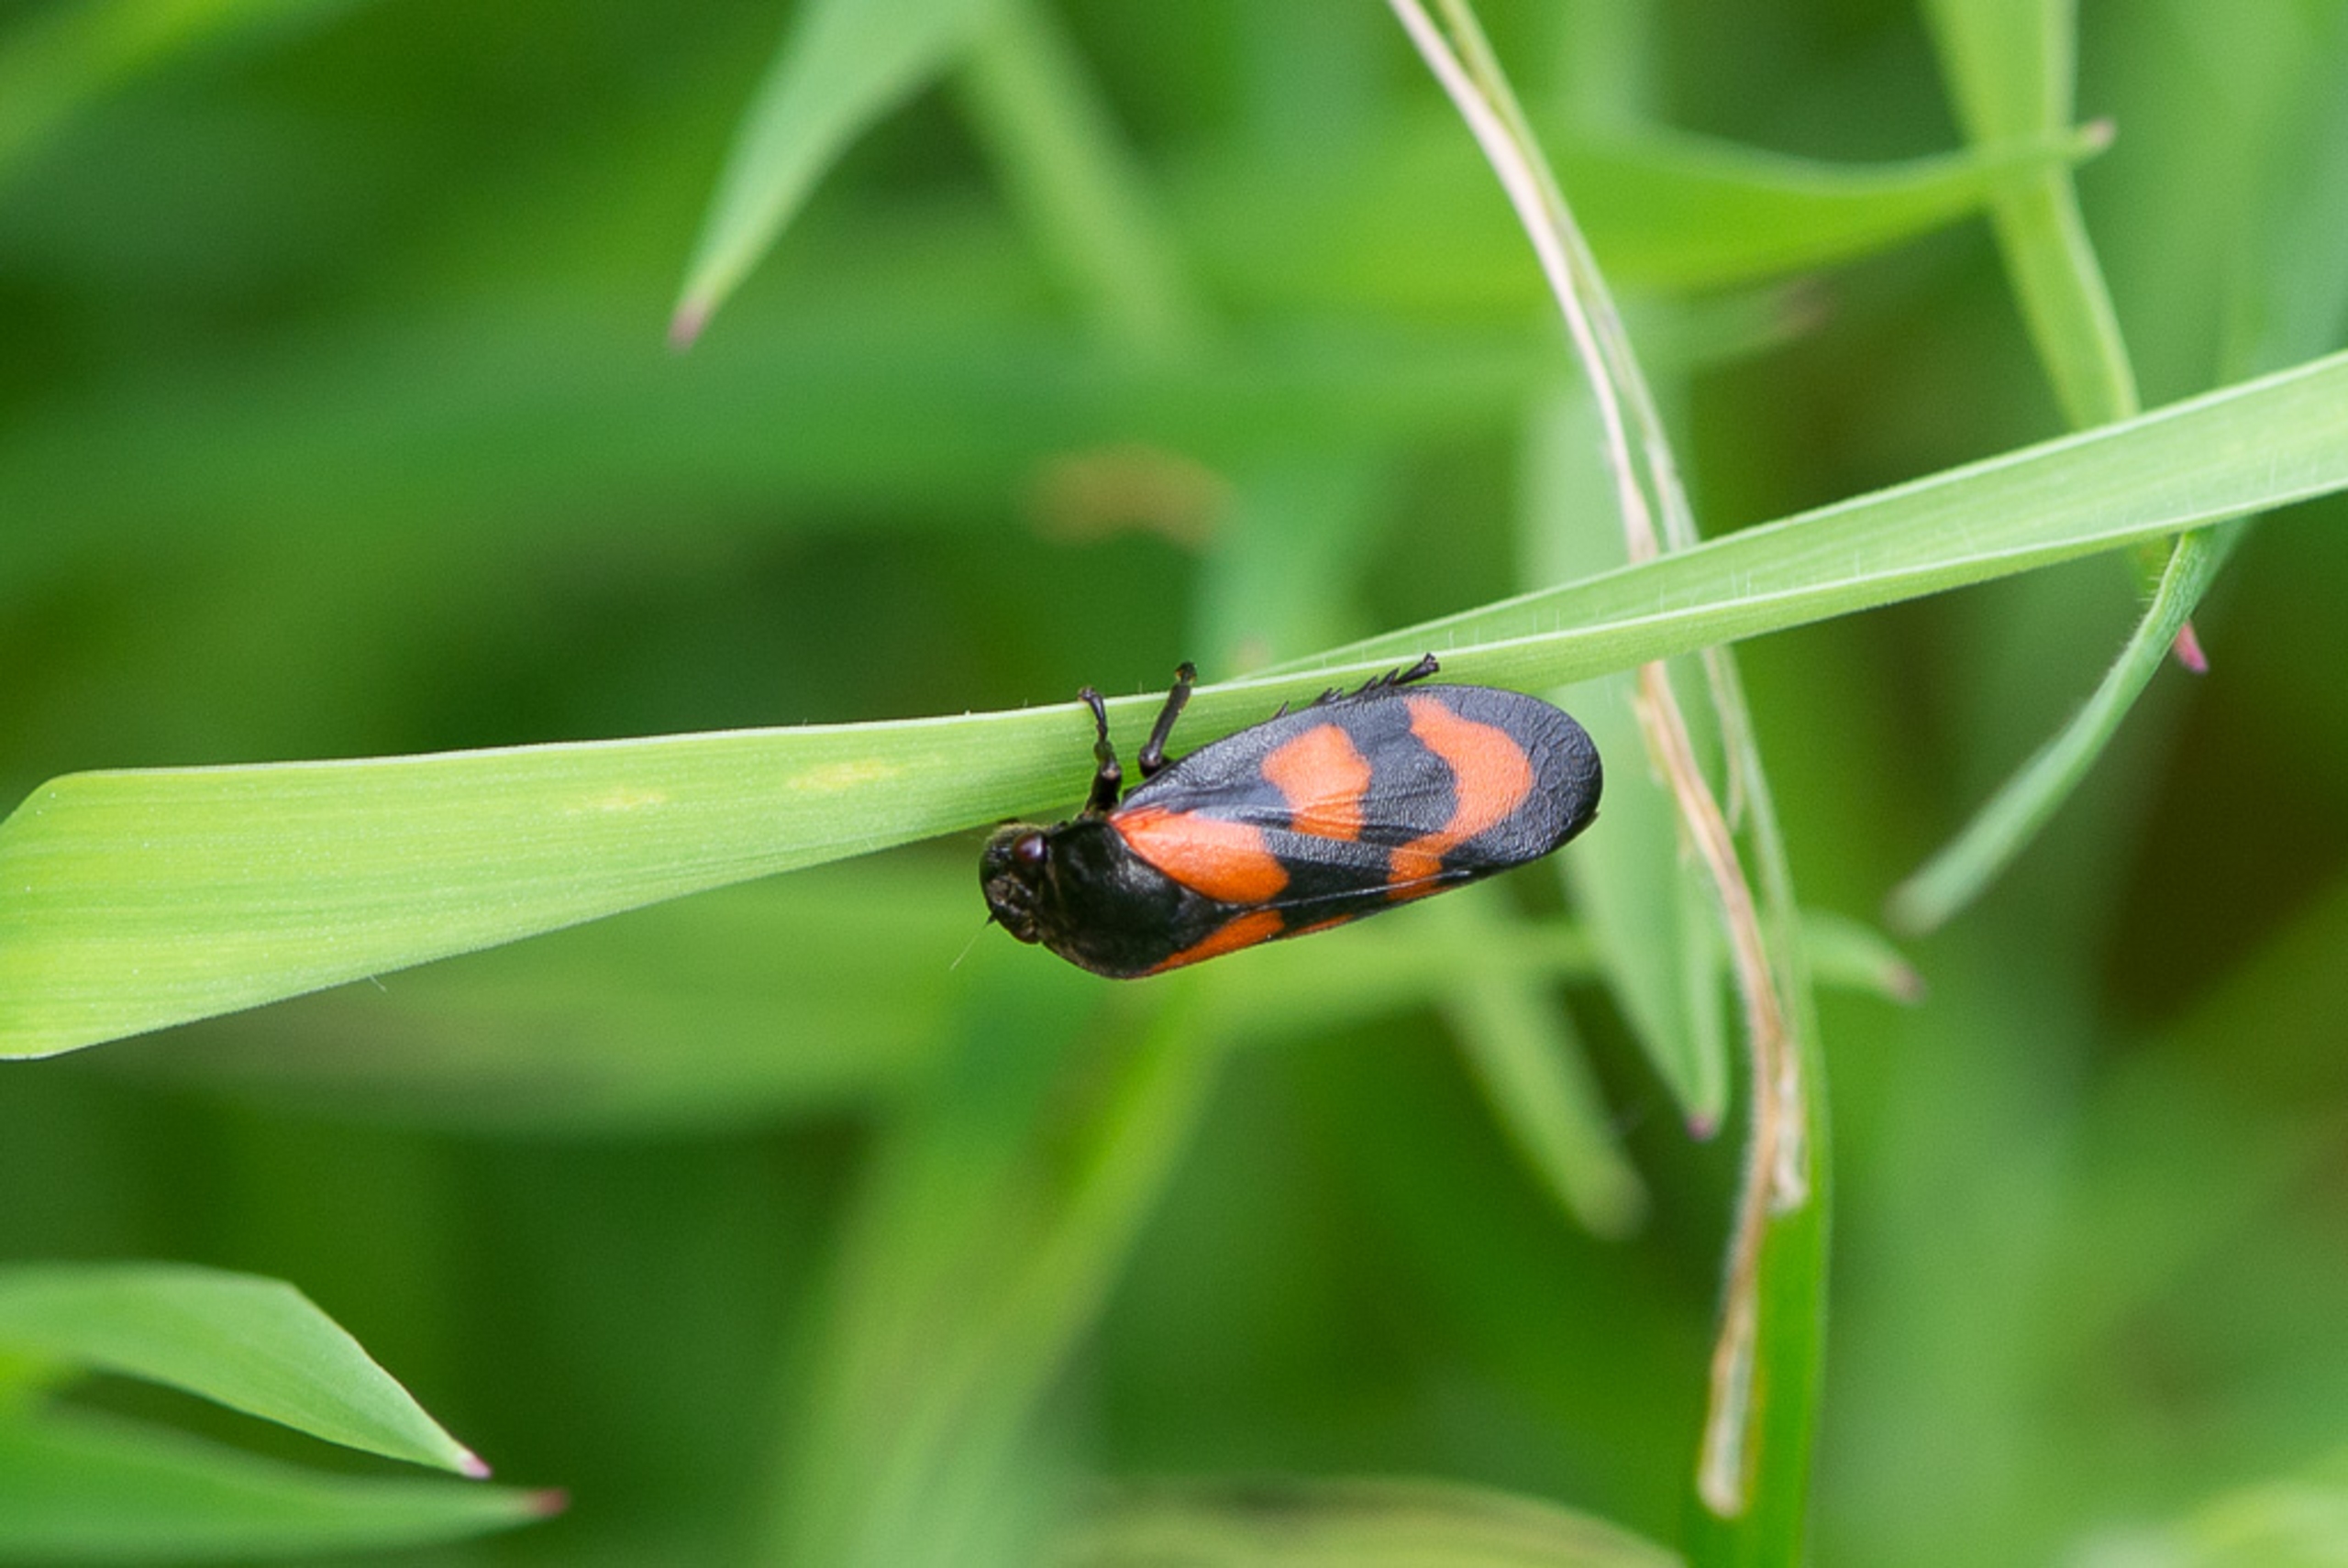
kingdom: Animalia
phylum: Arthropoda
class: Insecta
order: Hemiptera
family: Cercopidae
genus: Cercopis
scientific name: Cercopis vulnerata
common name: Blodcikade
